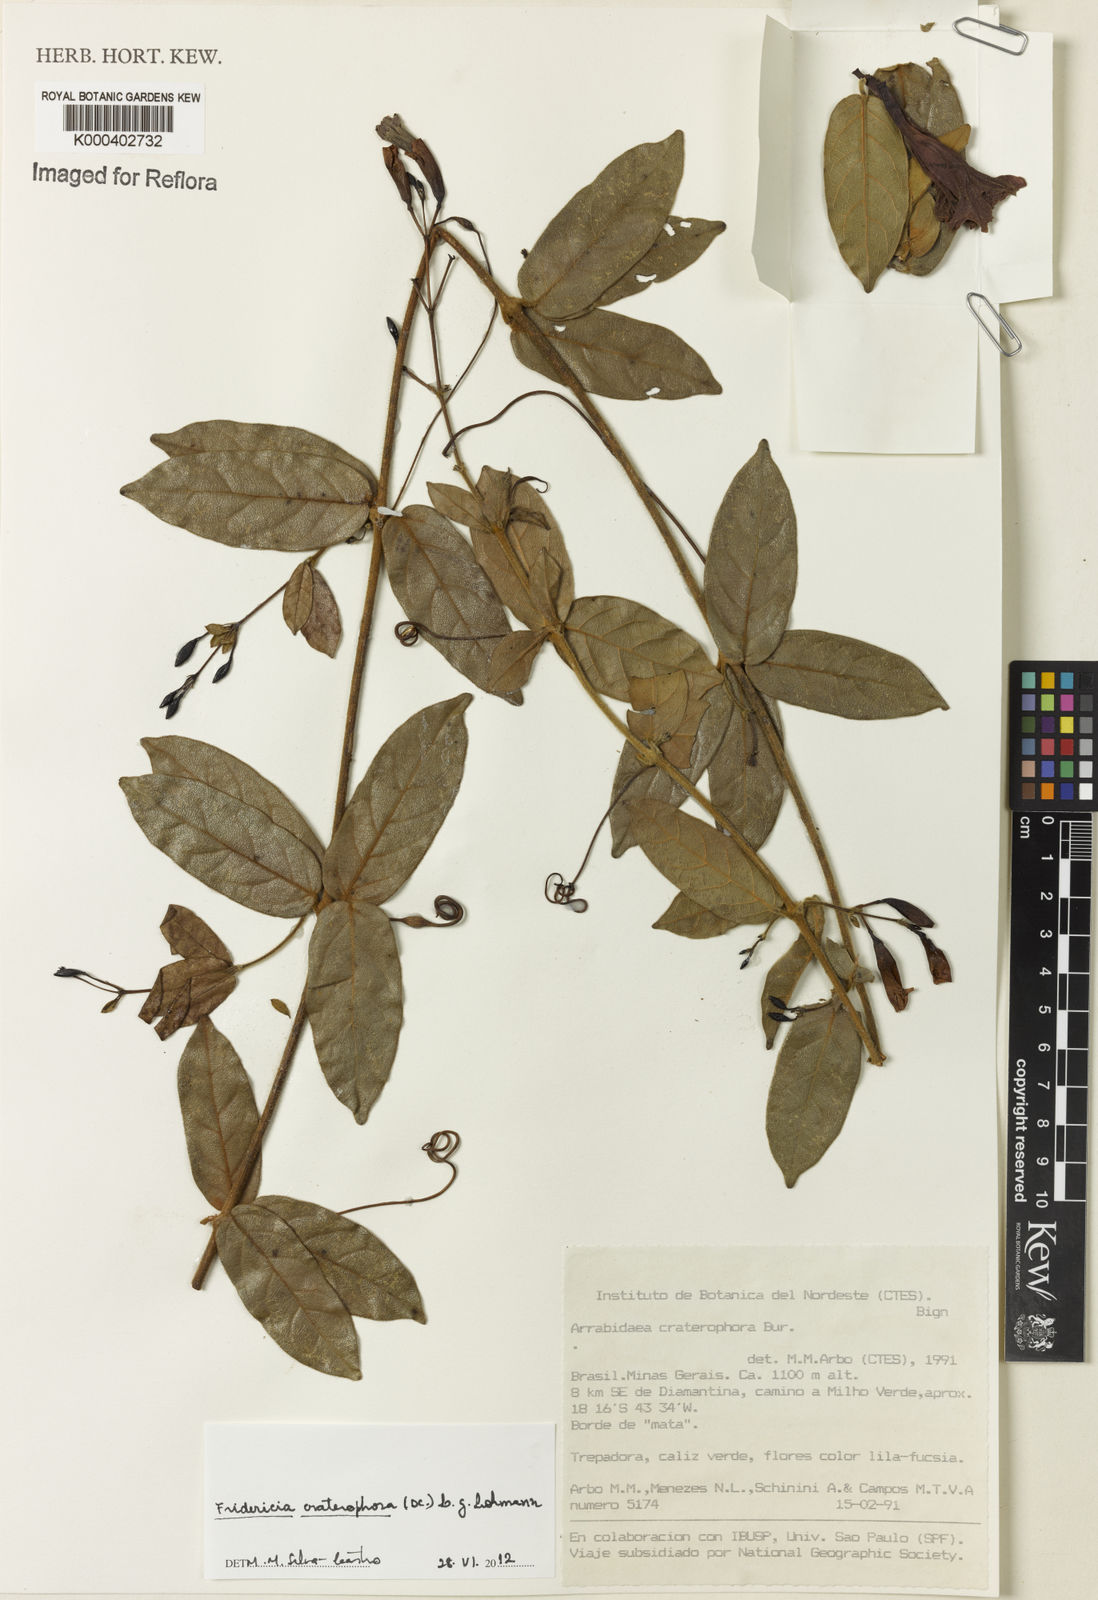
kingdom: Plantae
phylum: Tracheophyta
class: Magnoliopsida
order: Lamiales
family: Bignoniaceae
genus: Fridericia
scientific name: Fridericia craterophora
